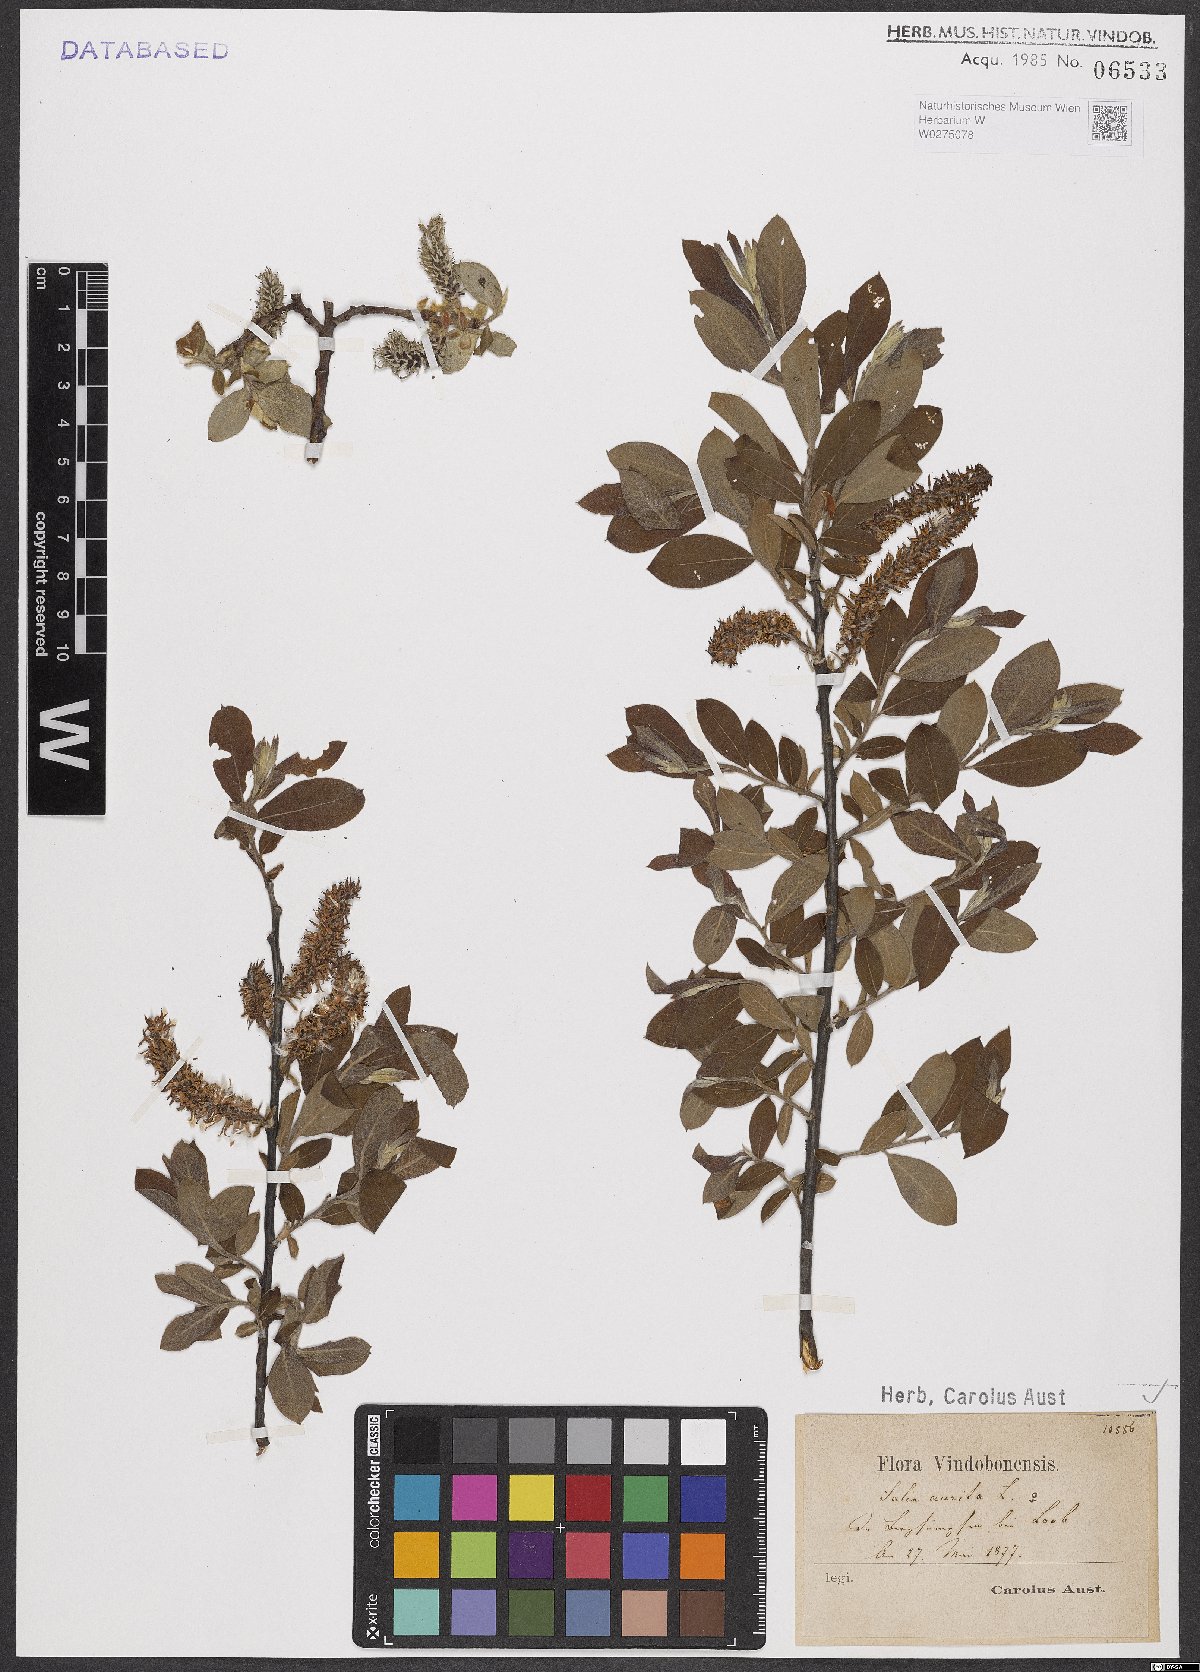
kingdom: Plantae
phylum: Tracheophyta
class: Magnoliopsida
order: Malpighiales
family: Salicaceae
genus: Salix
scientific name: Salix aurita
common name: Eared willow
